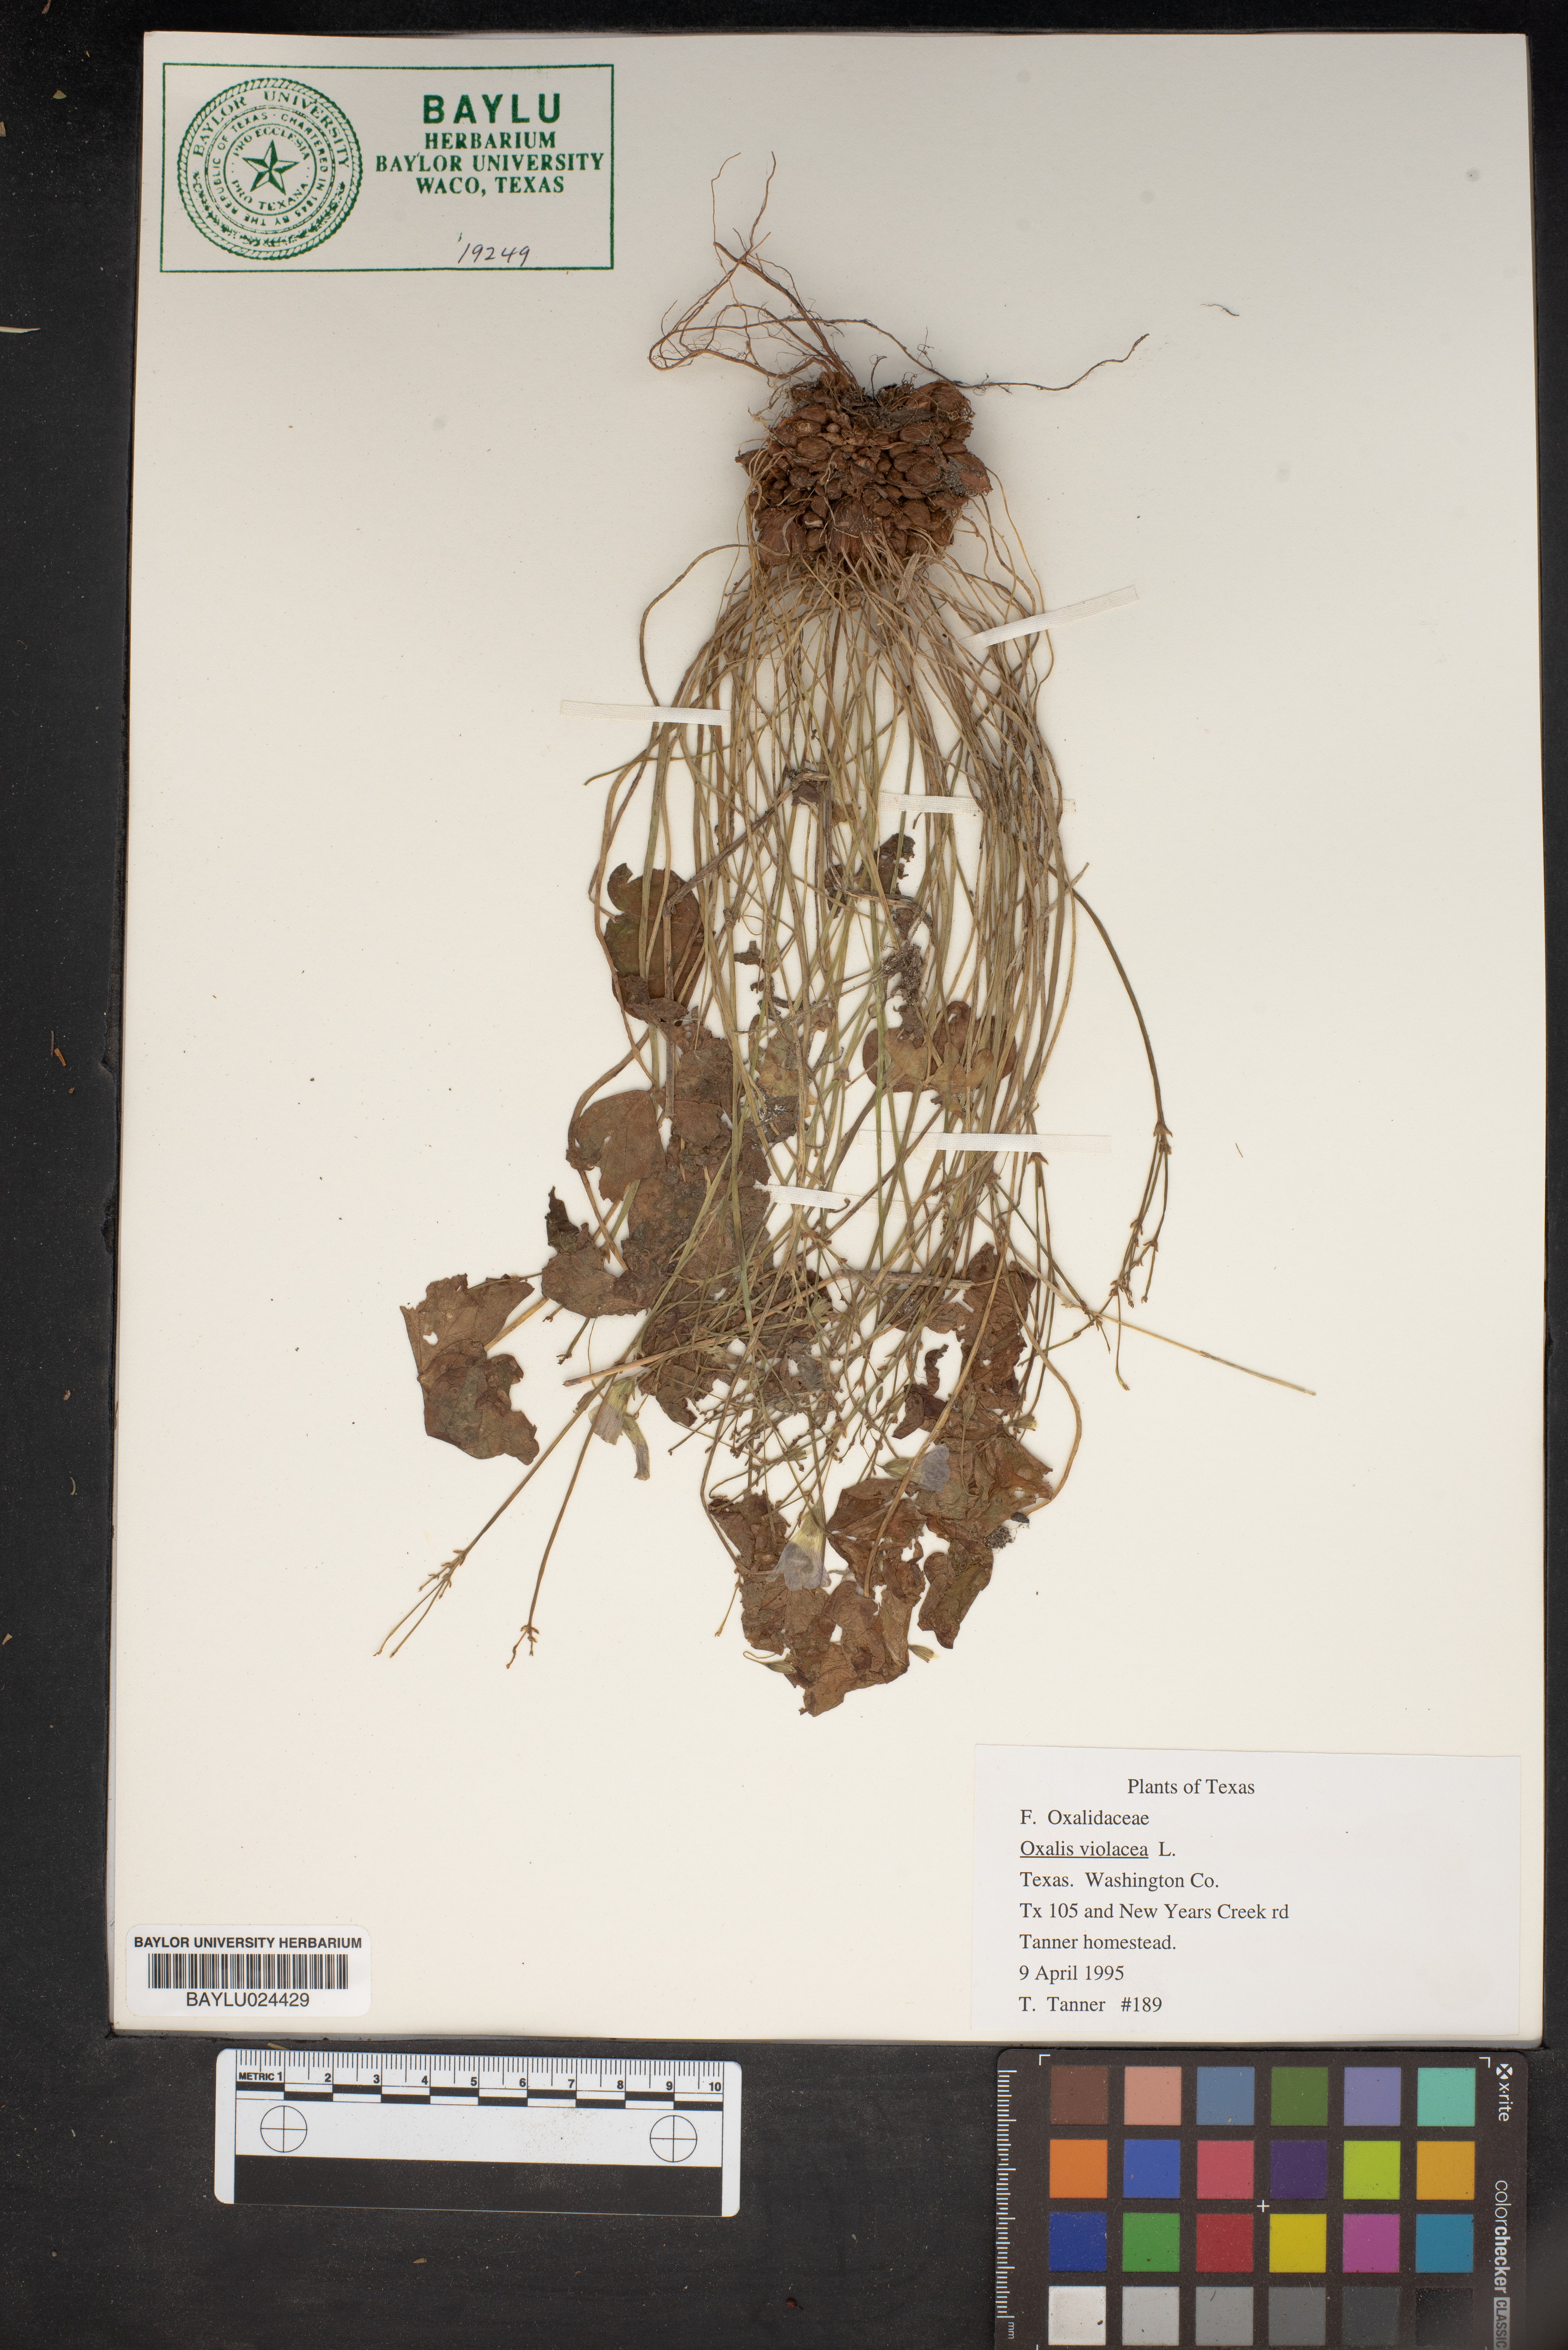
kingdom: Plantae
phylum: Tracheophyta
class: Magnoliopsida
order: Oxalidales
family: Oxalidaceae
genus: Oxalis
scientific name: Oxalis violacea
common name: Violet wood-sorrel
